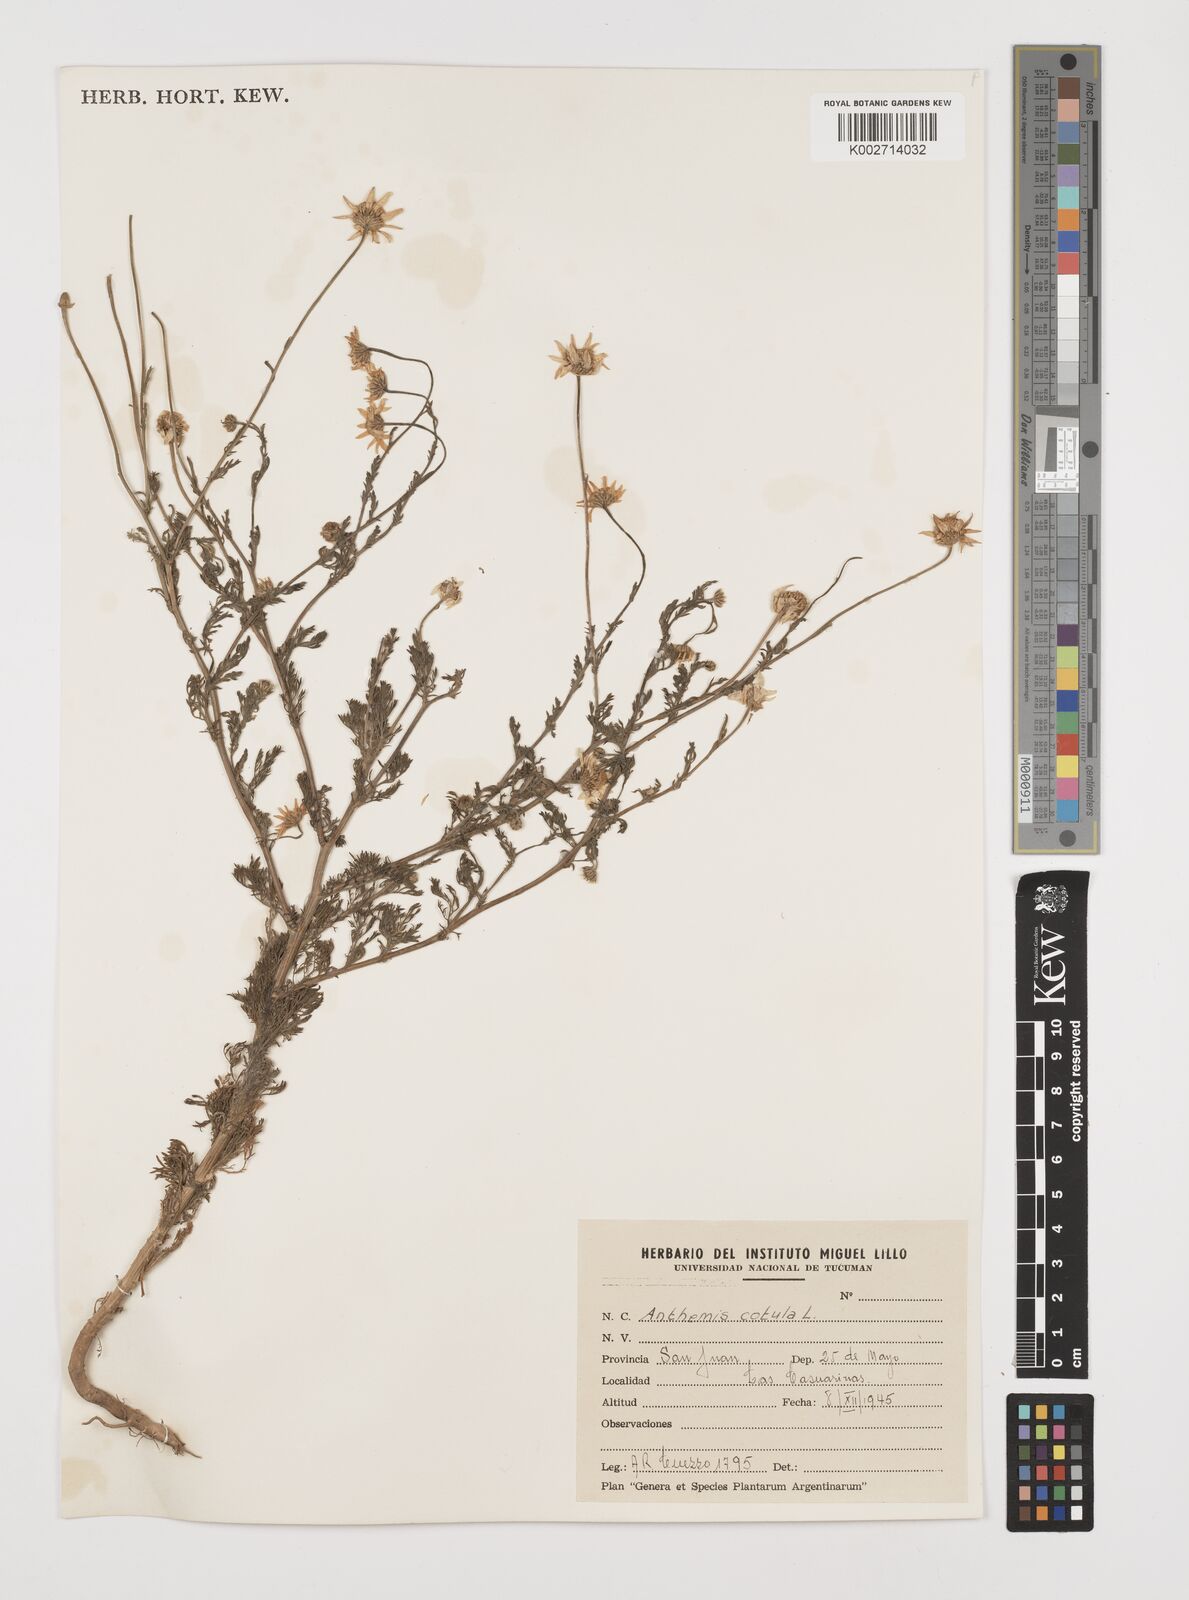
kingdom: Plantae
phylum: Tracheophyta
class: Magnoliopsida
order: Asterales
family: Asteraceae
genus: Anthemis
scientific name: Anthemis cotula
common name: Stinking chamomile
